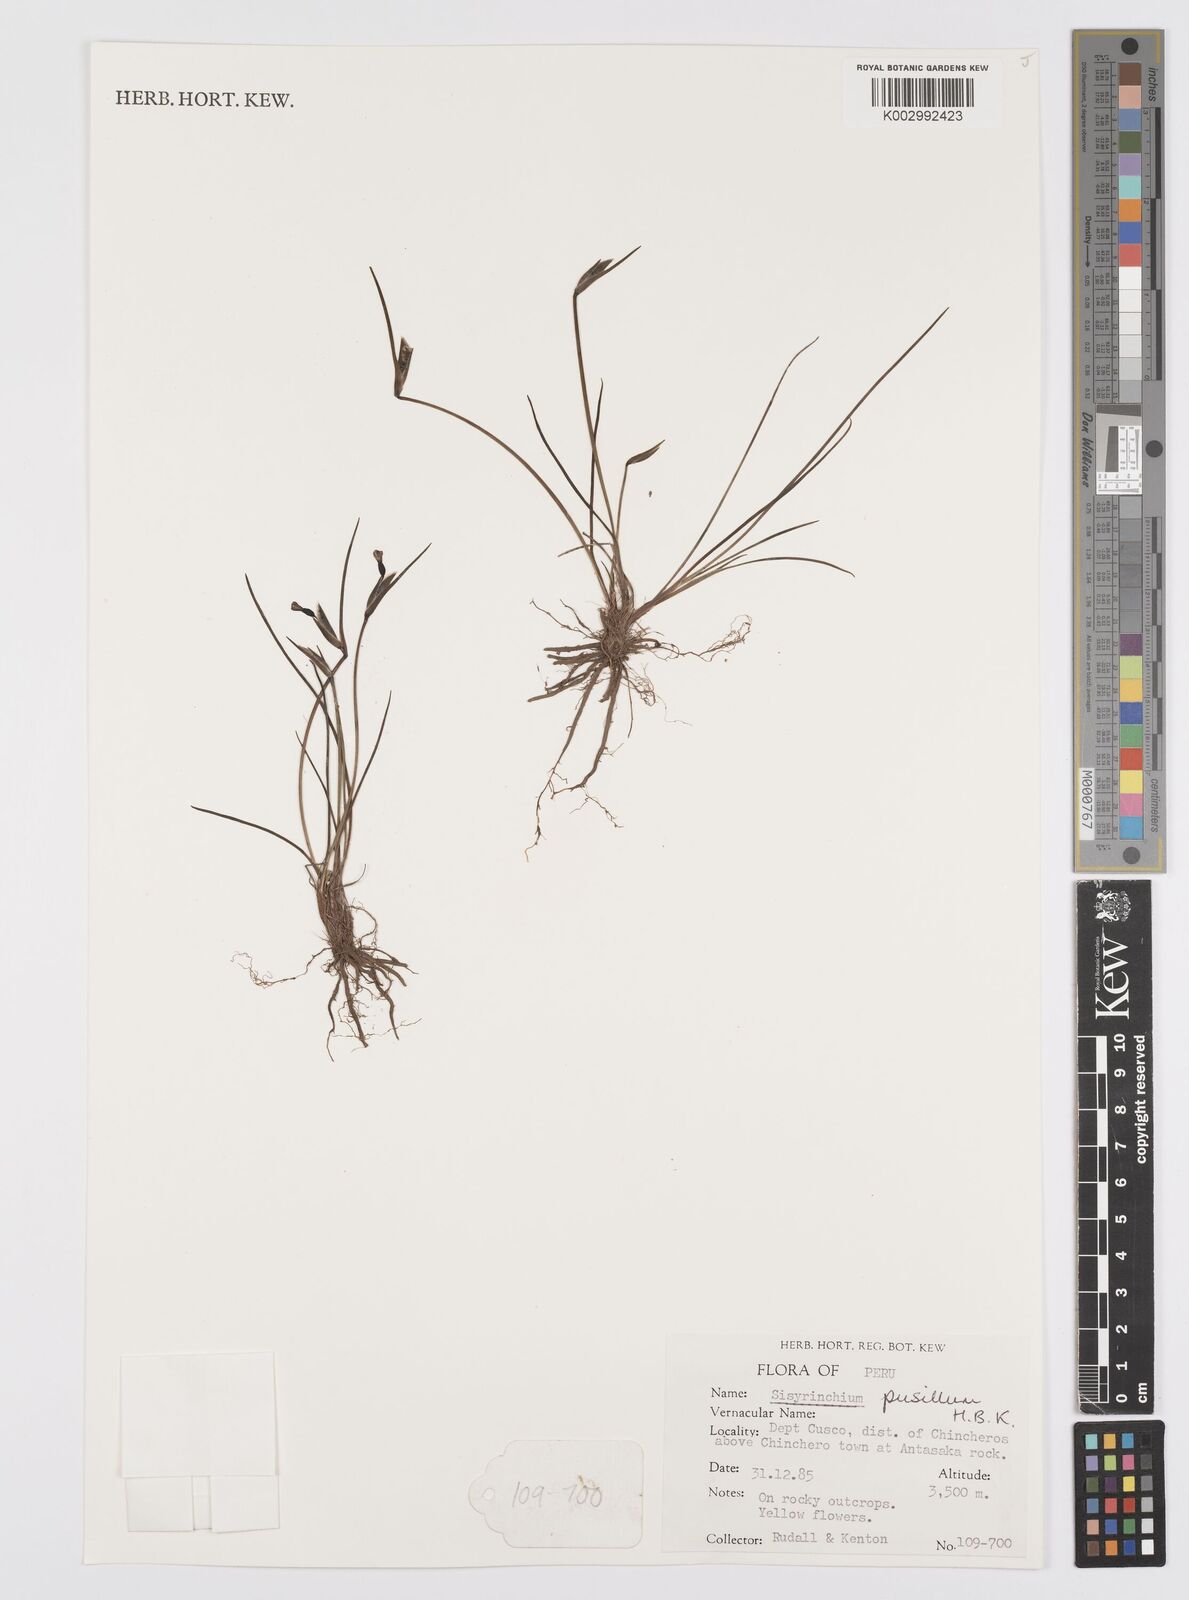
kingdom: Plantae
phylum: Tracheophyta
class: Liliopsida
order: Asparagales
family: Iridaceae
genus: Sisyrinchium
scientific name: Sisyrinchium pusillum
